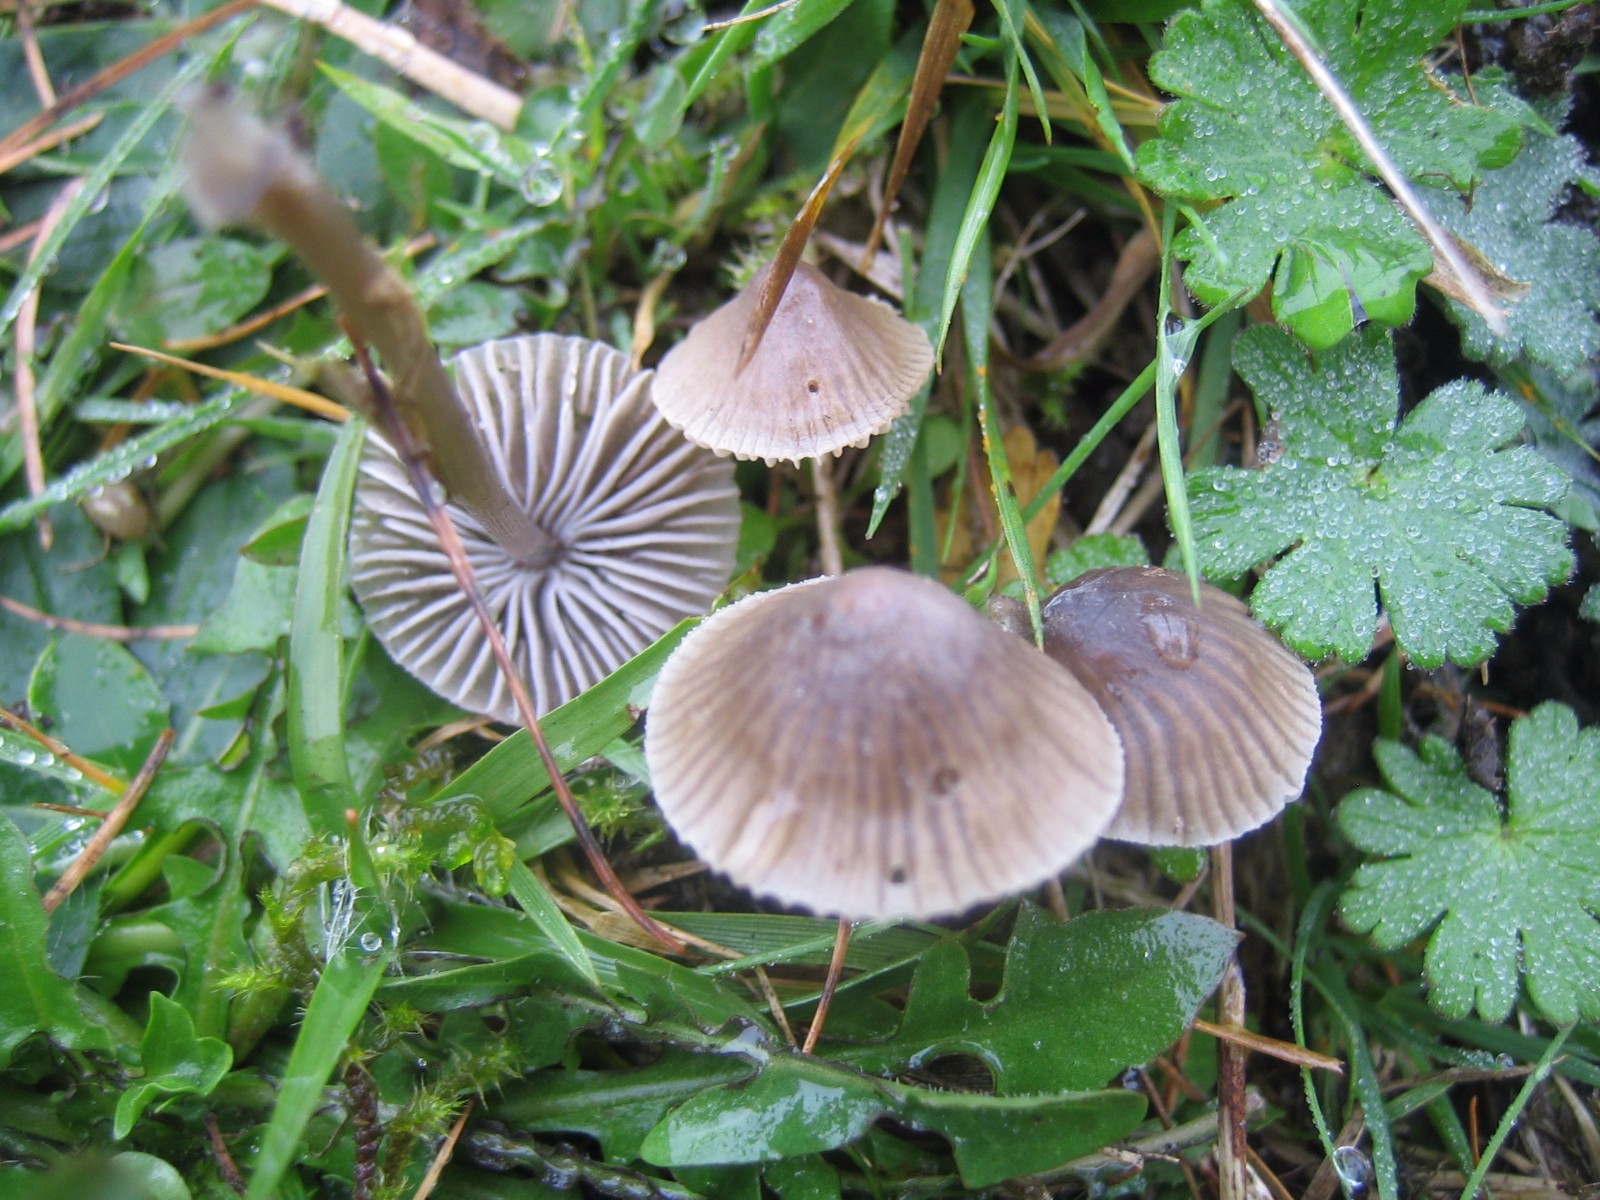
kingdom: Fungi
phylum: Basidiomycota
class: Agaricomycetes
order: Agaricales
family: Mycenaceae
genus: Mycena
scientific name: Mycena
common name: huesvamp
